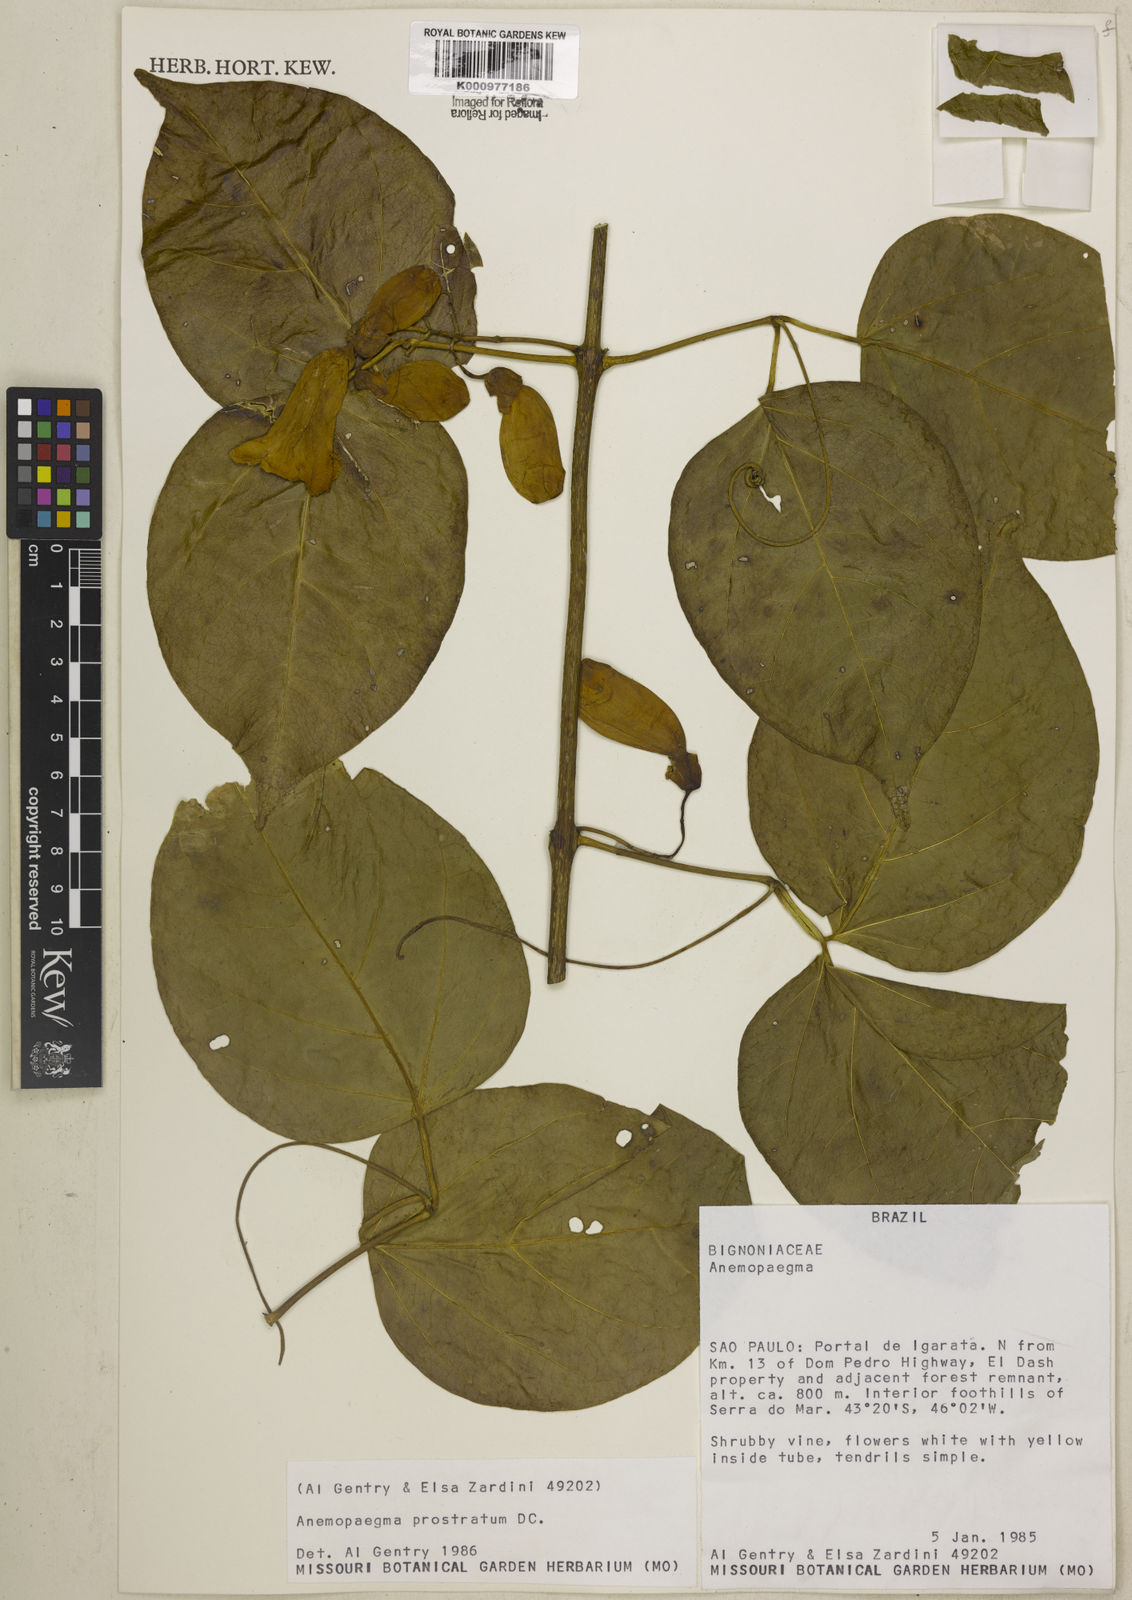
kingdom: Plantae
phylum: Tracheophyta
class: Magnoliopsida
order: Lamiales
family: Bignoniaceae
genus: Anemopaegma
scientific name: Anemopaegma prostratum
